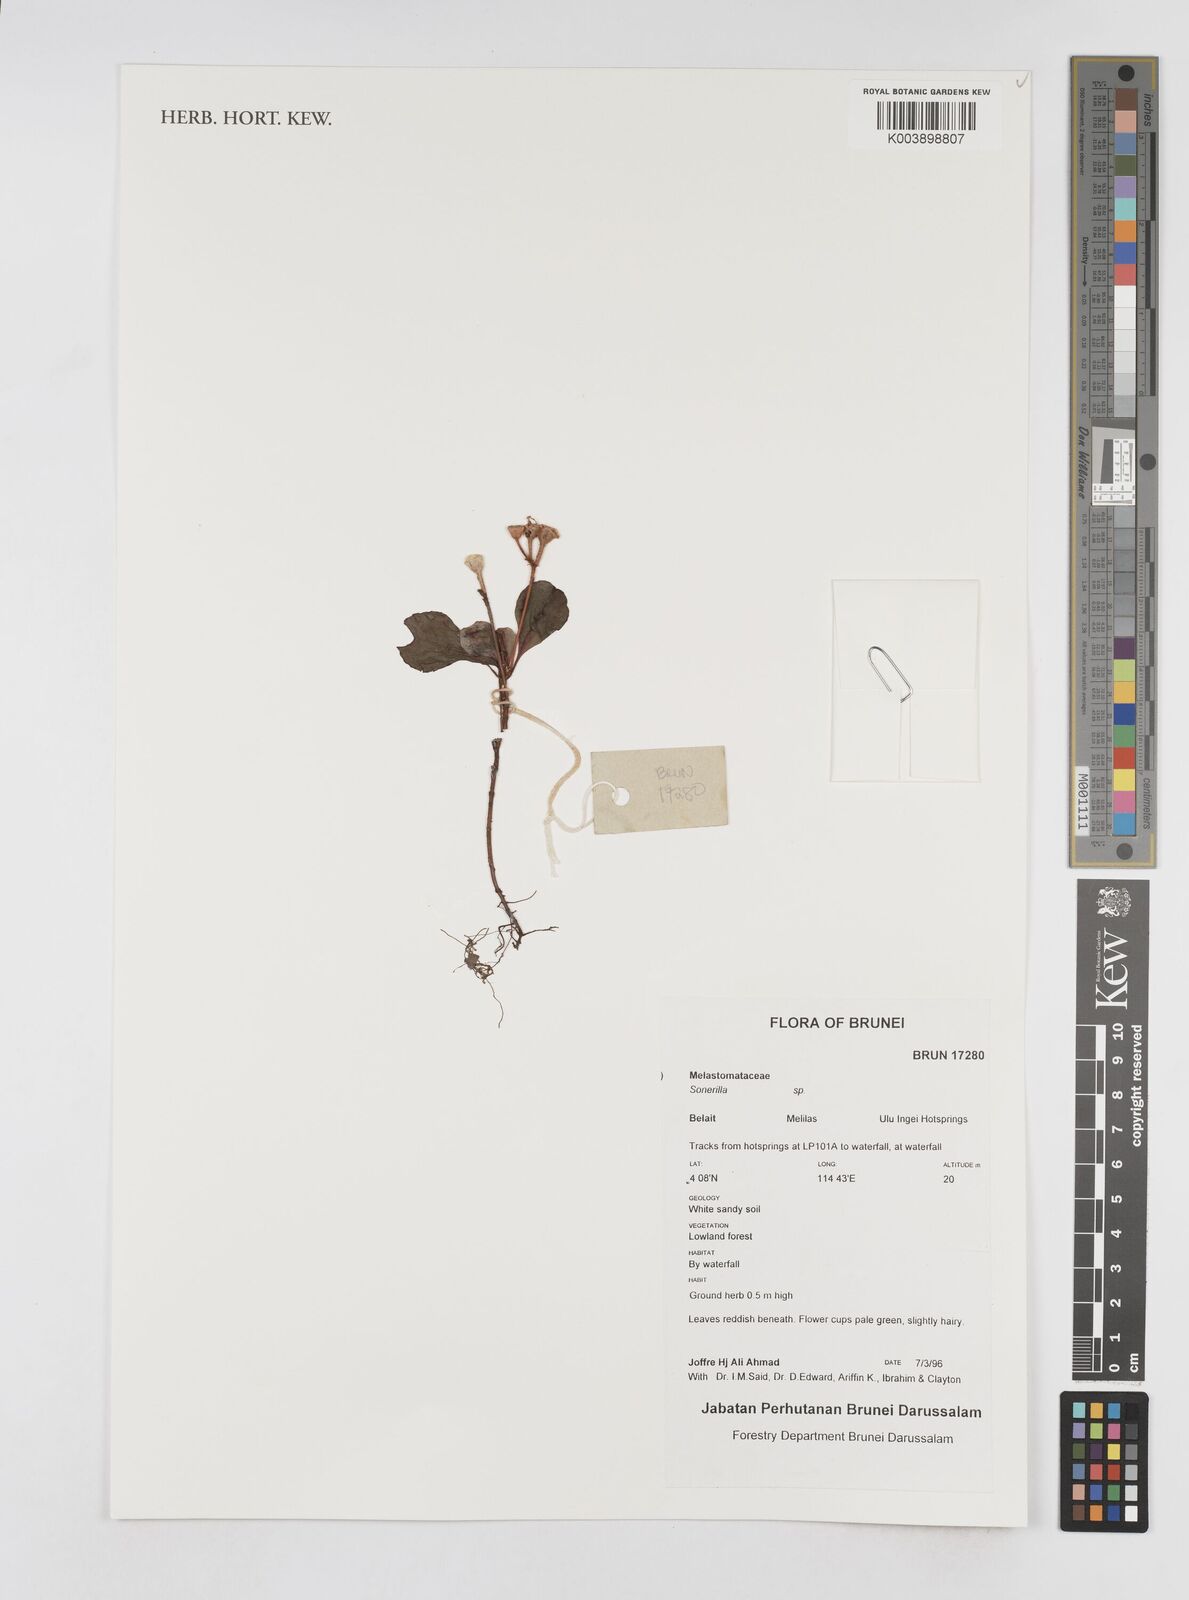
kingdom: Plantae
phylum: Tracheophyta
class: Magnoliopsida
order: Myrtales
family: Melastomataceae
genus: Sonerila
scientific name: Sonerila
